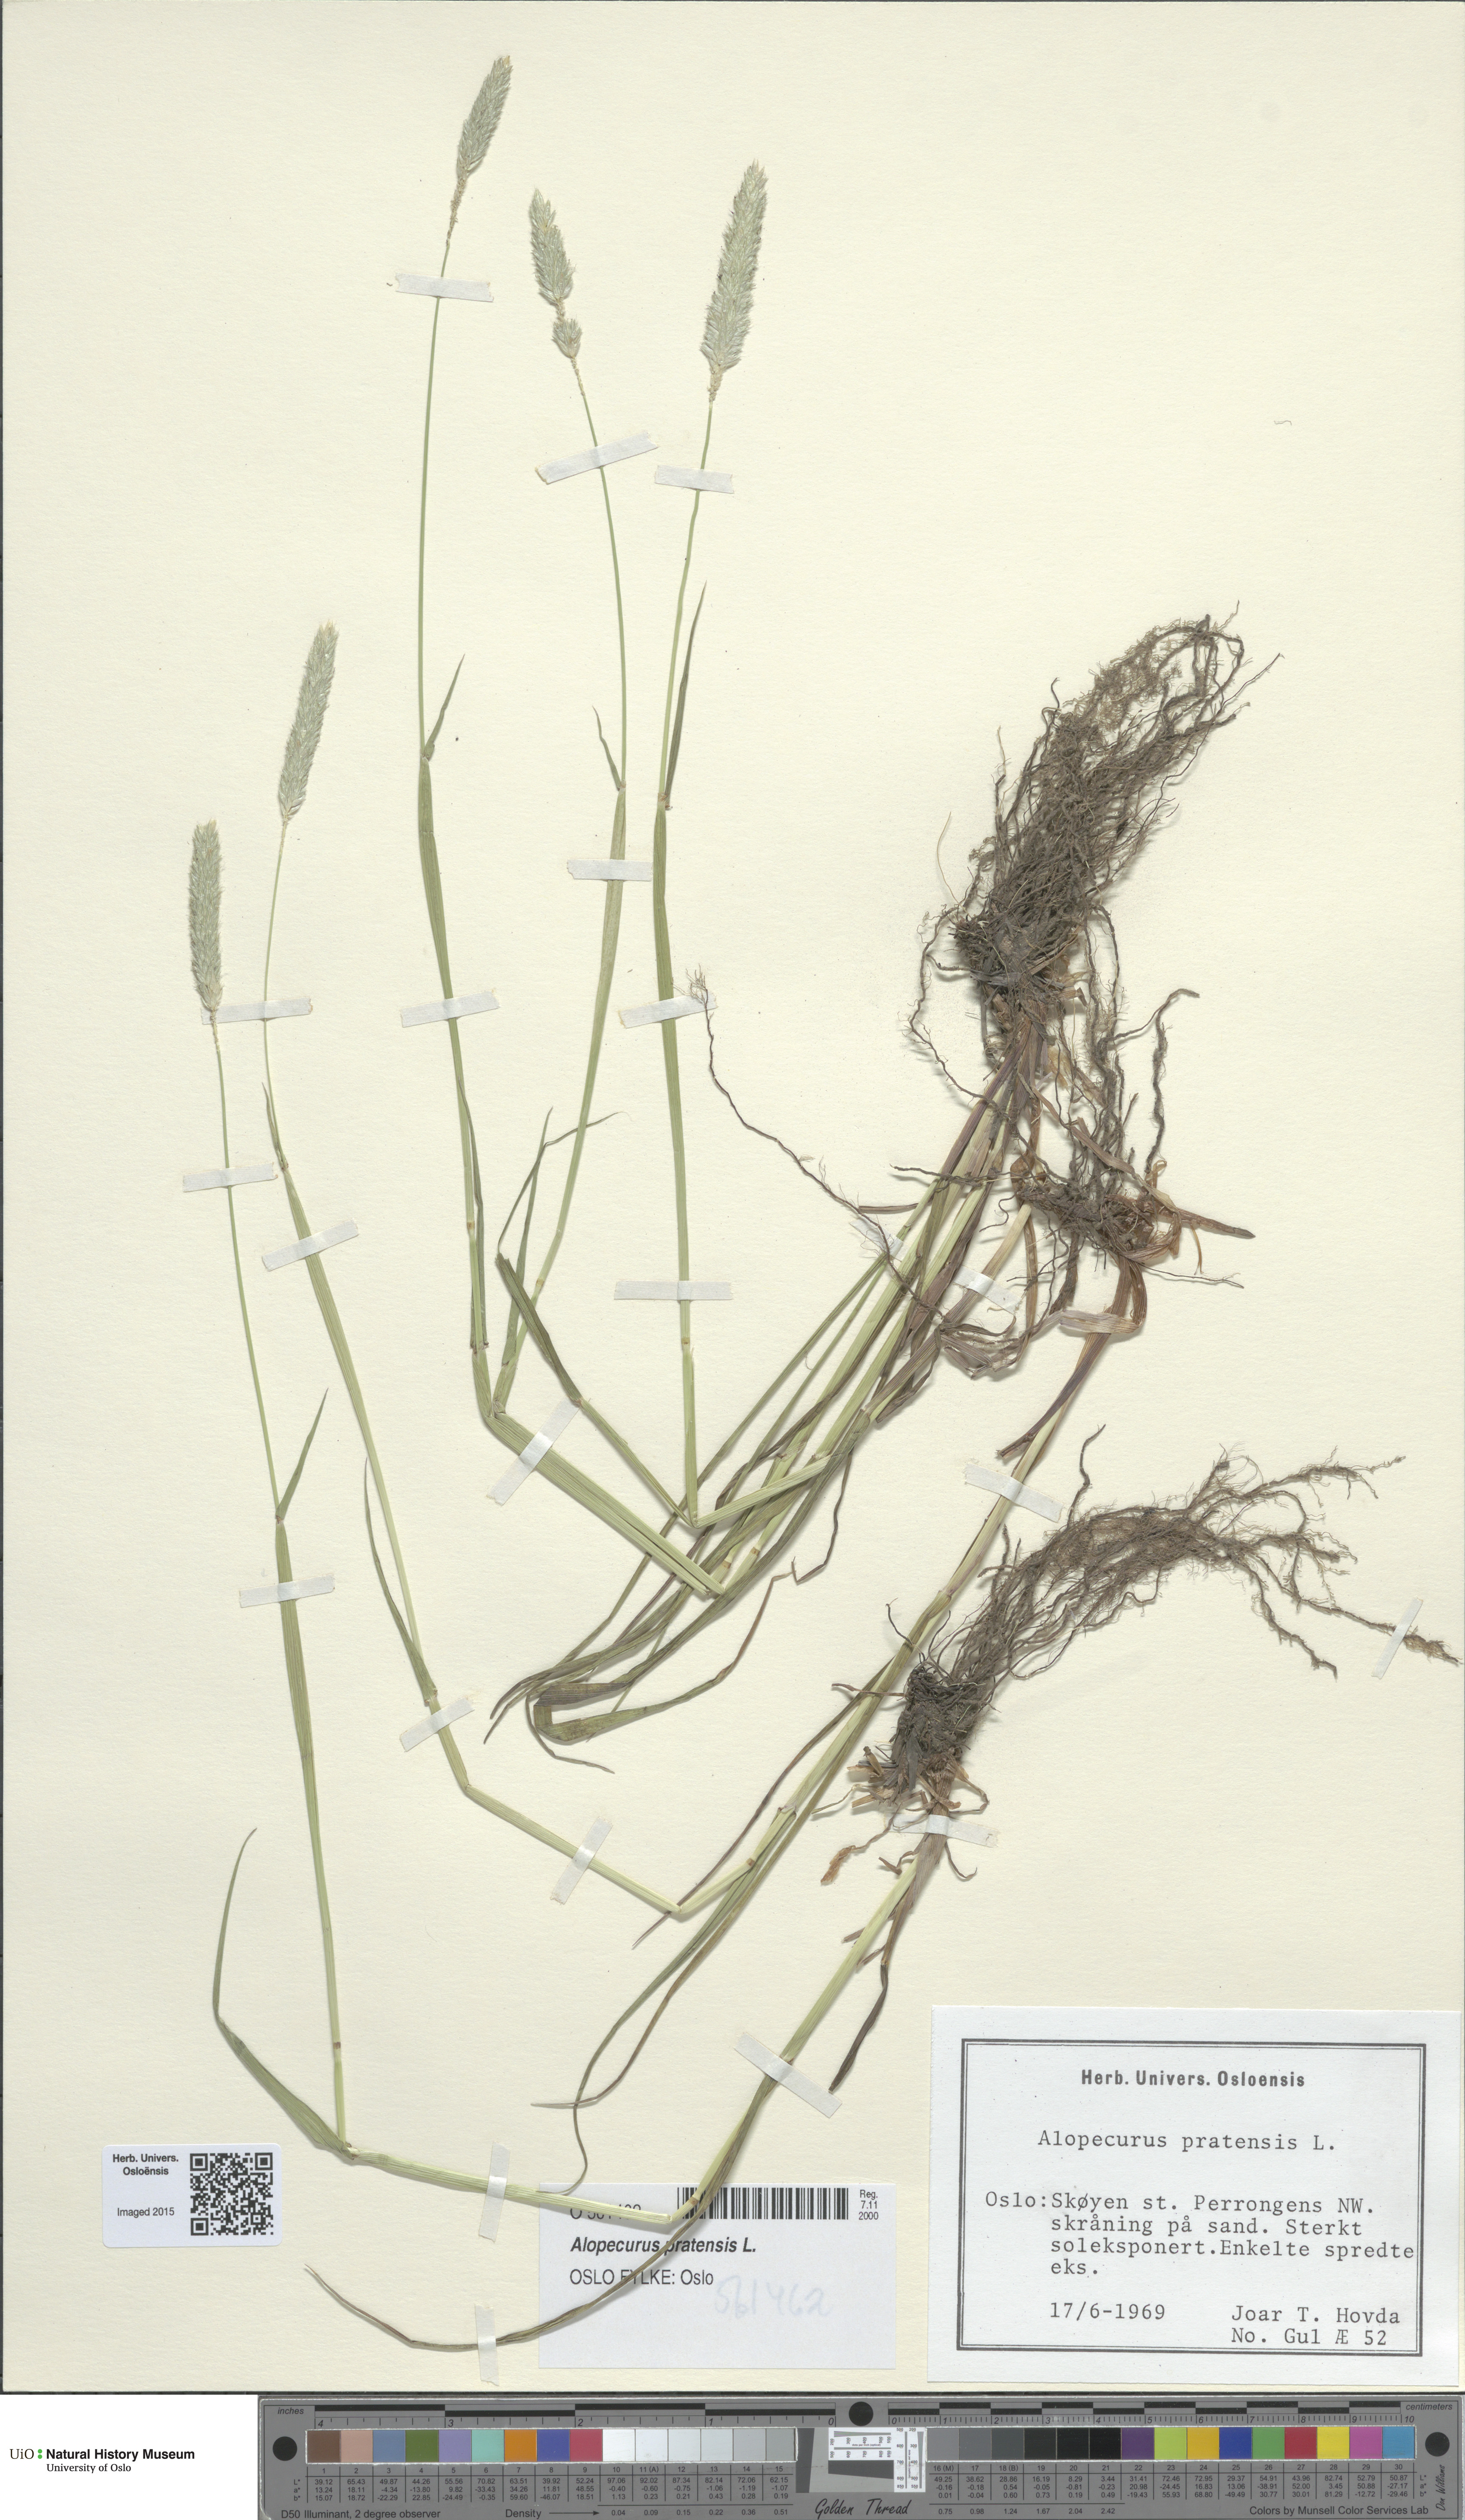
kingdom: Plantae
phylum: Tracheophyta
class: Liliopsida
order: Poales
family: Poaceae
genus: Alopecurus
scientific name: Alopecurus pratensis
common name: Meadow foxtail
